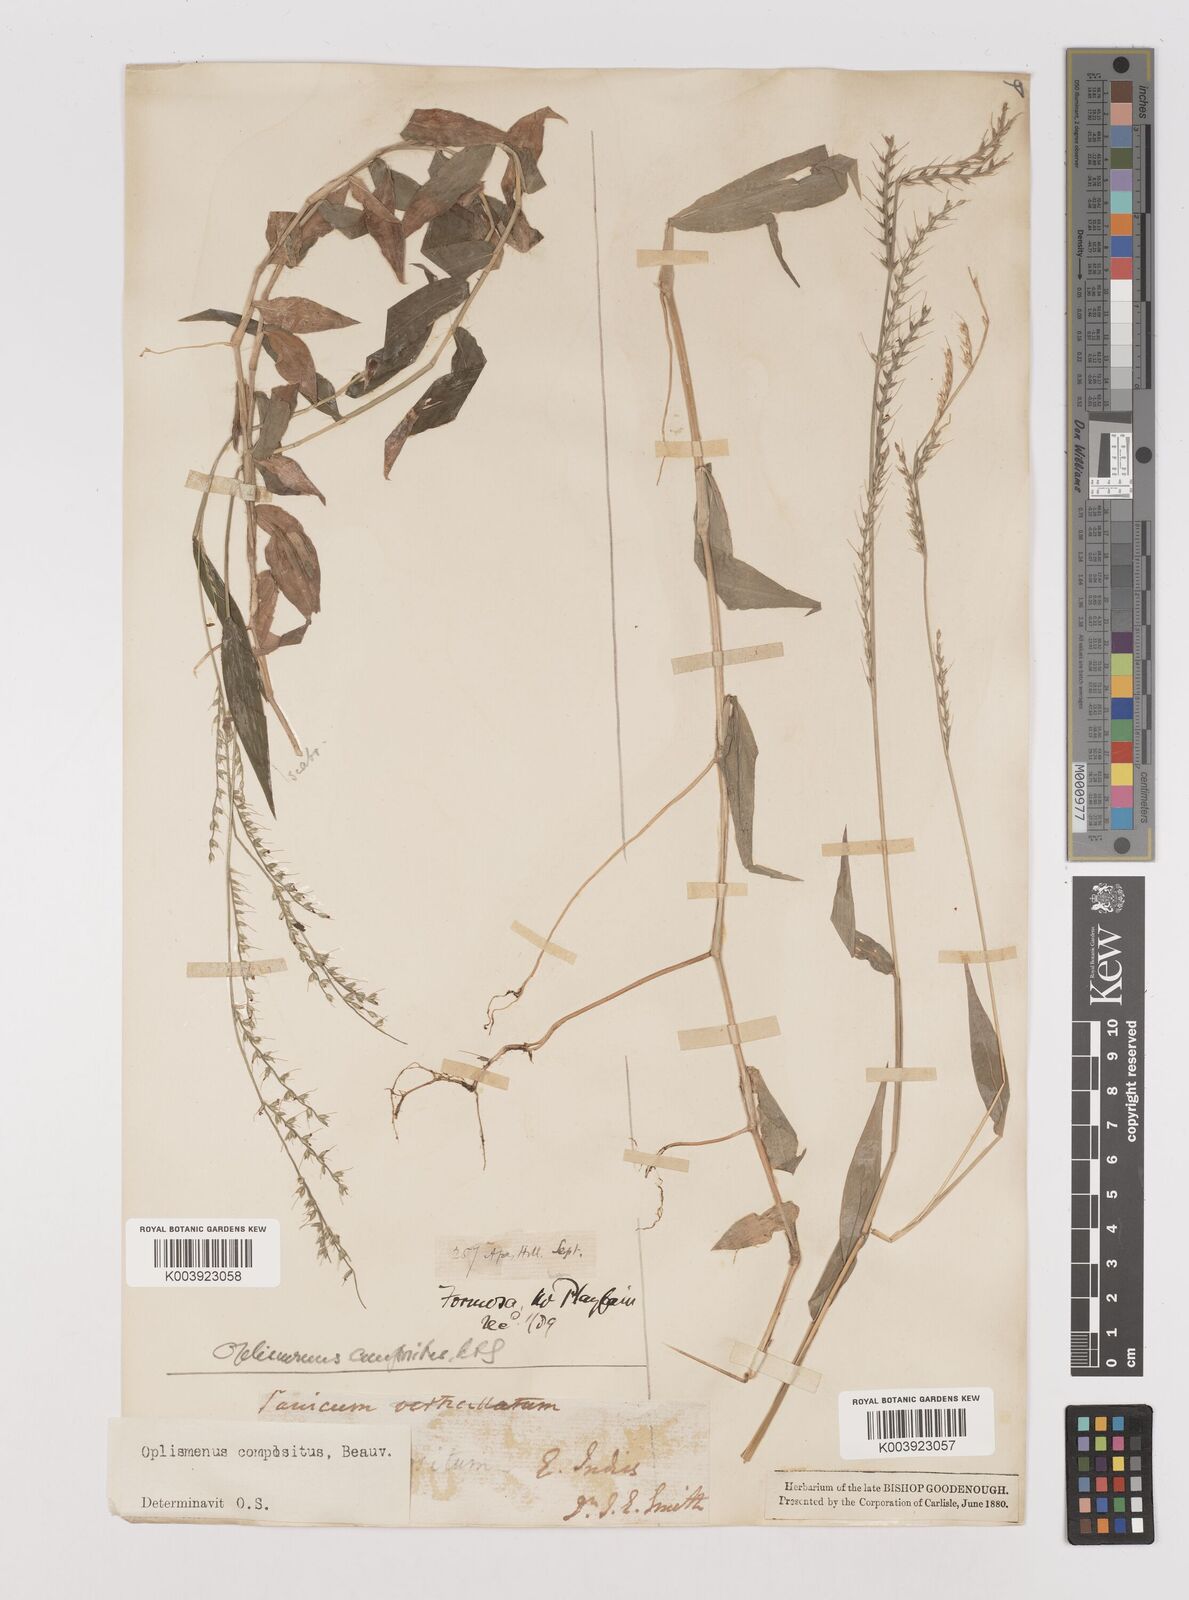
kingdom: Plantae
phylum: Tracheophyta
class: Liliopsida
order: Poales
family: Poaceae
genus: Oplismenus
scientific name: Oplismenus compositus
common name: Running mountain grass
